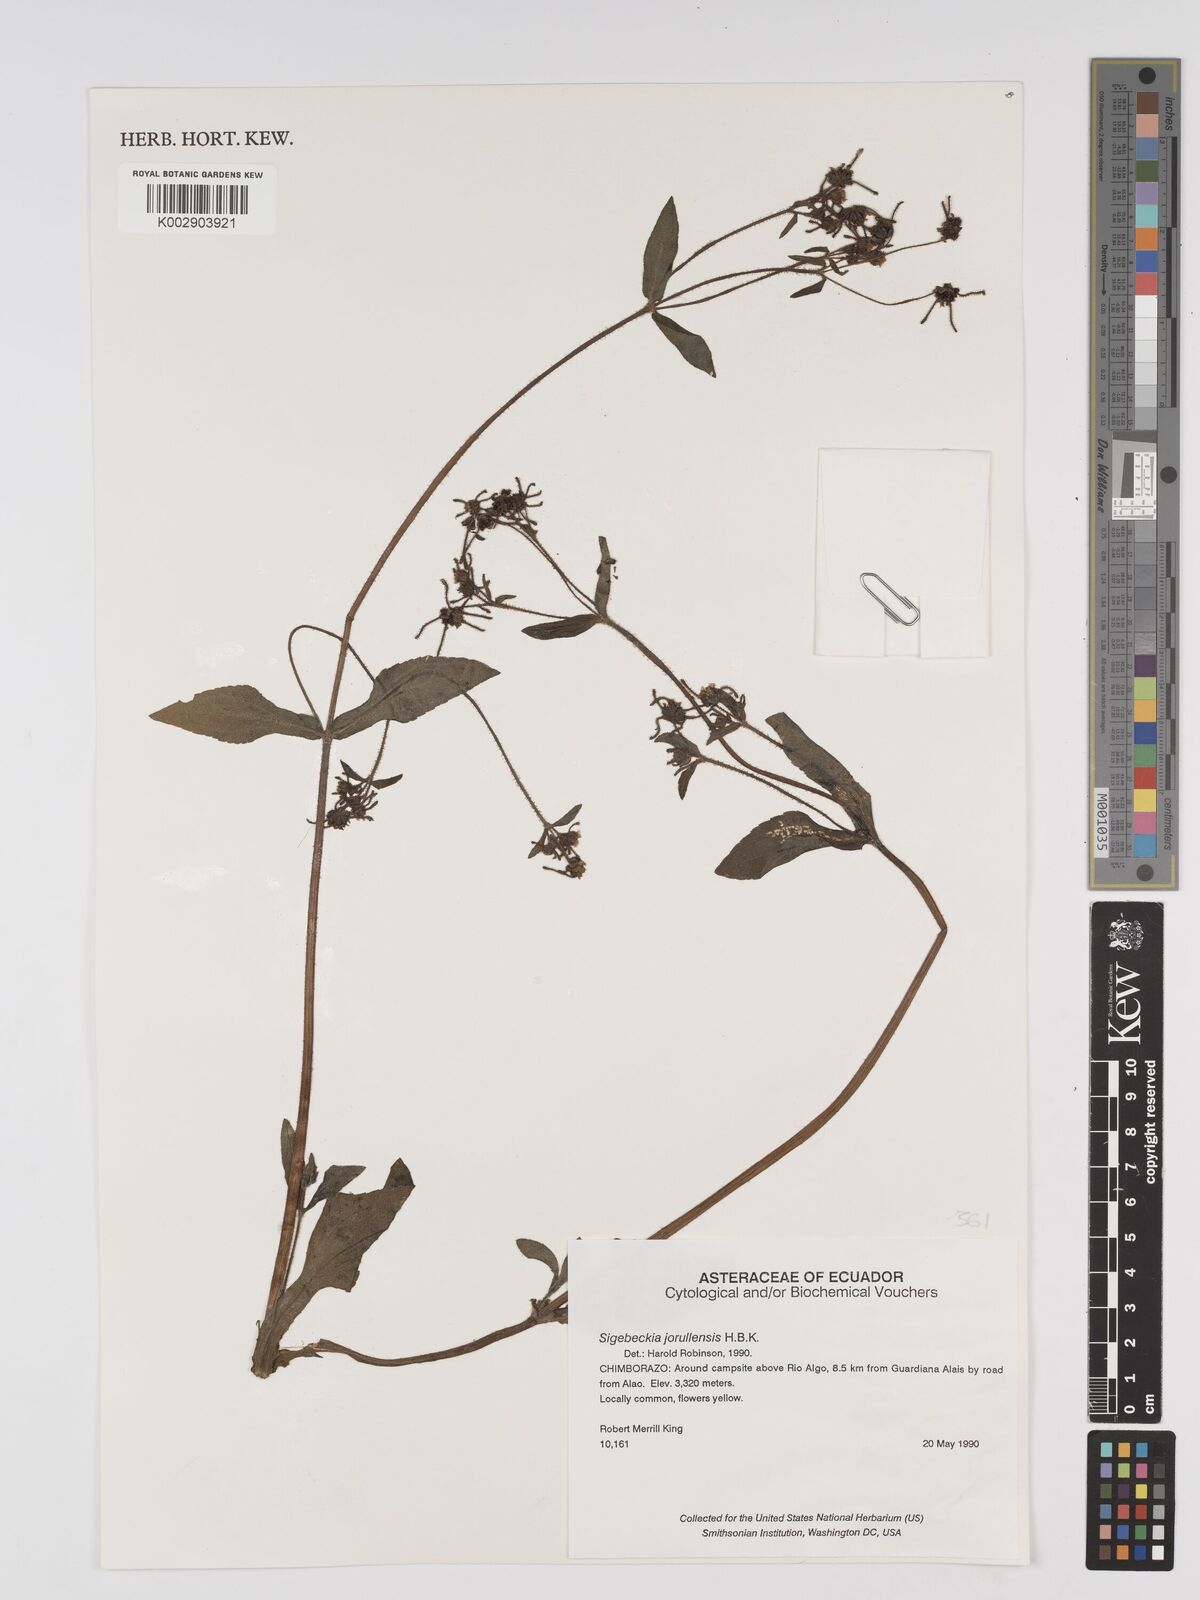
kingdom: Plantae
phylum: Tracheophyta
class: Magnoliopsida
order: Asterales
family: Asteraceae
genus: Sigesbeckia
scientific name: Sigesbeckia jorullensis
